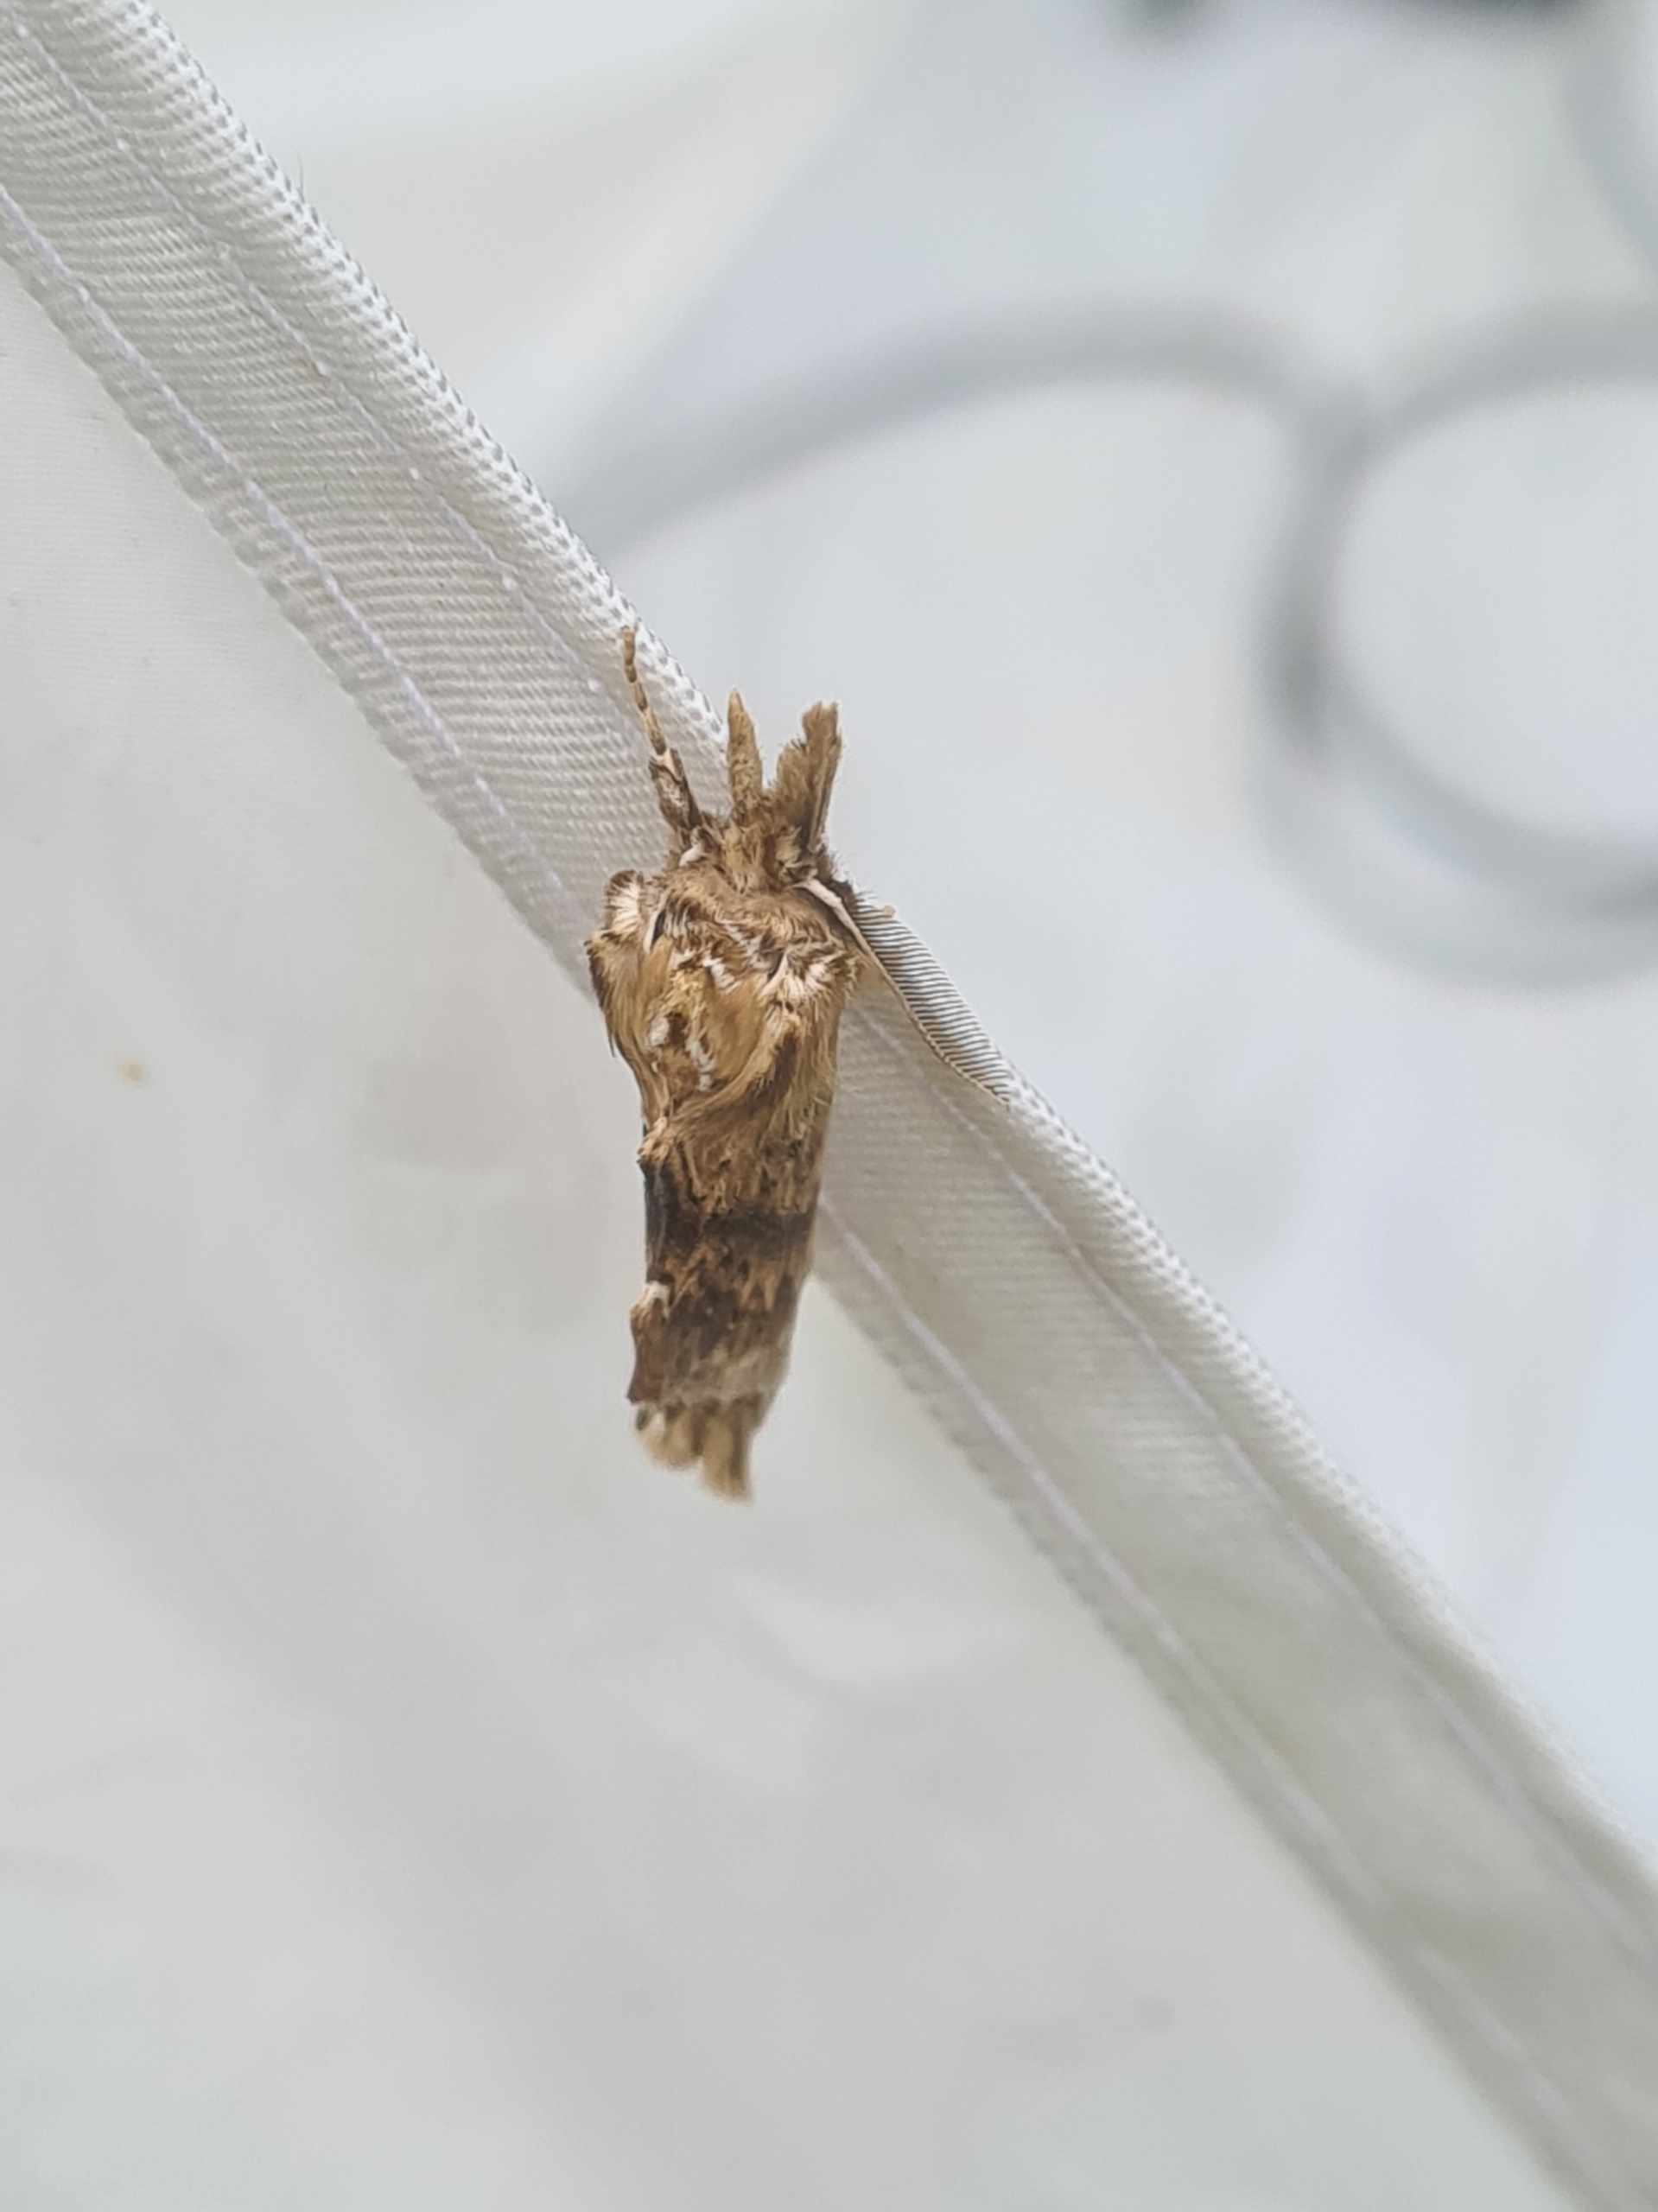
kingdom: Animalia
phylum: Arthropoda
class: Insecta
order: Lepidoptera
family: Notodontidae
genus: Pterostoma
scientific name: Pterostoma palpina
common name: Palpetandspinder
